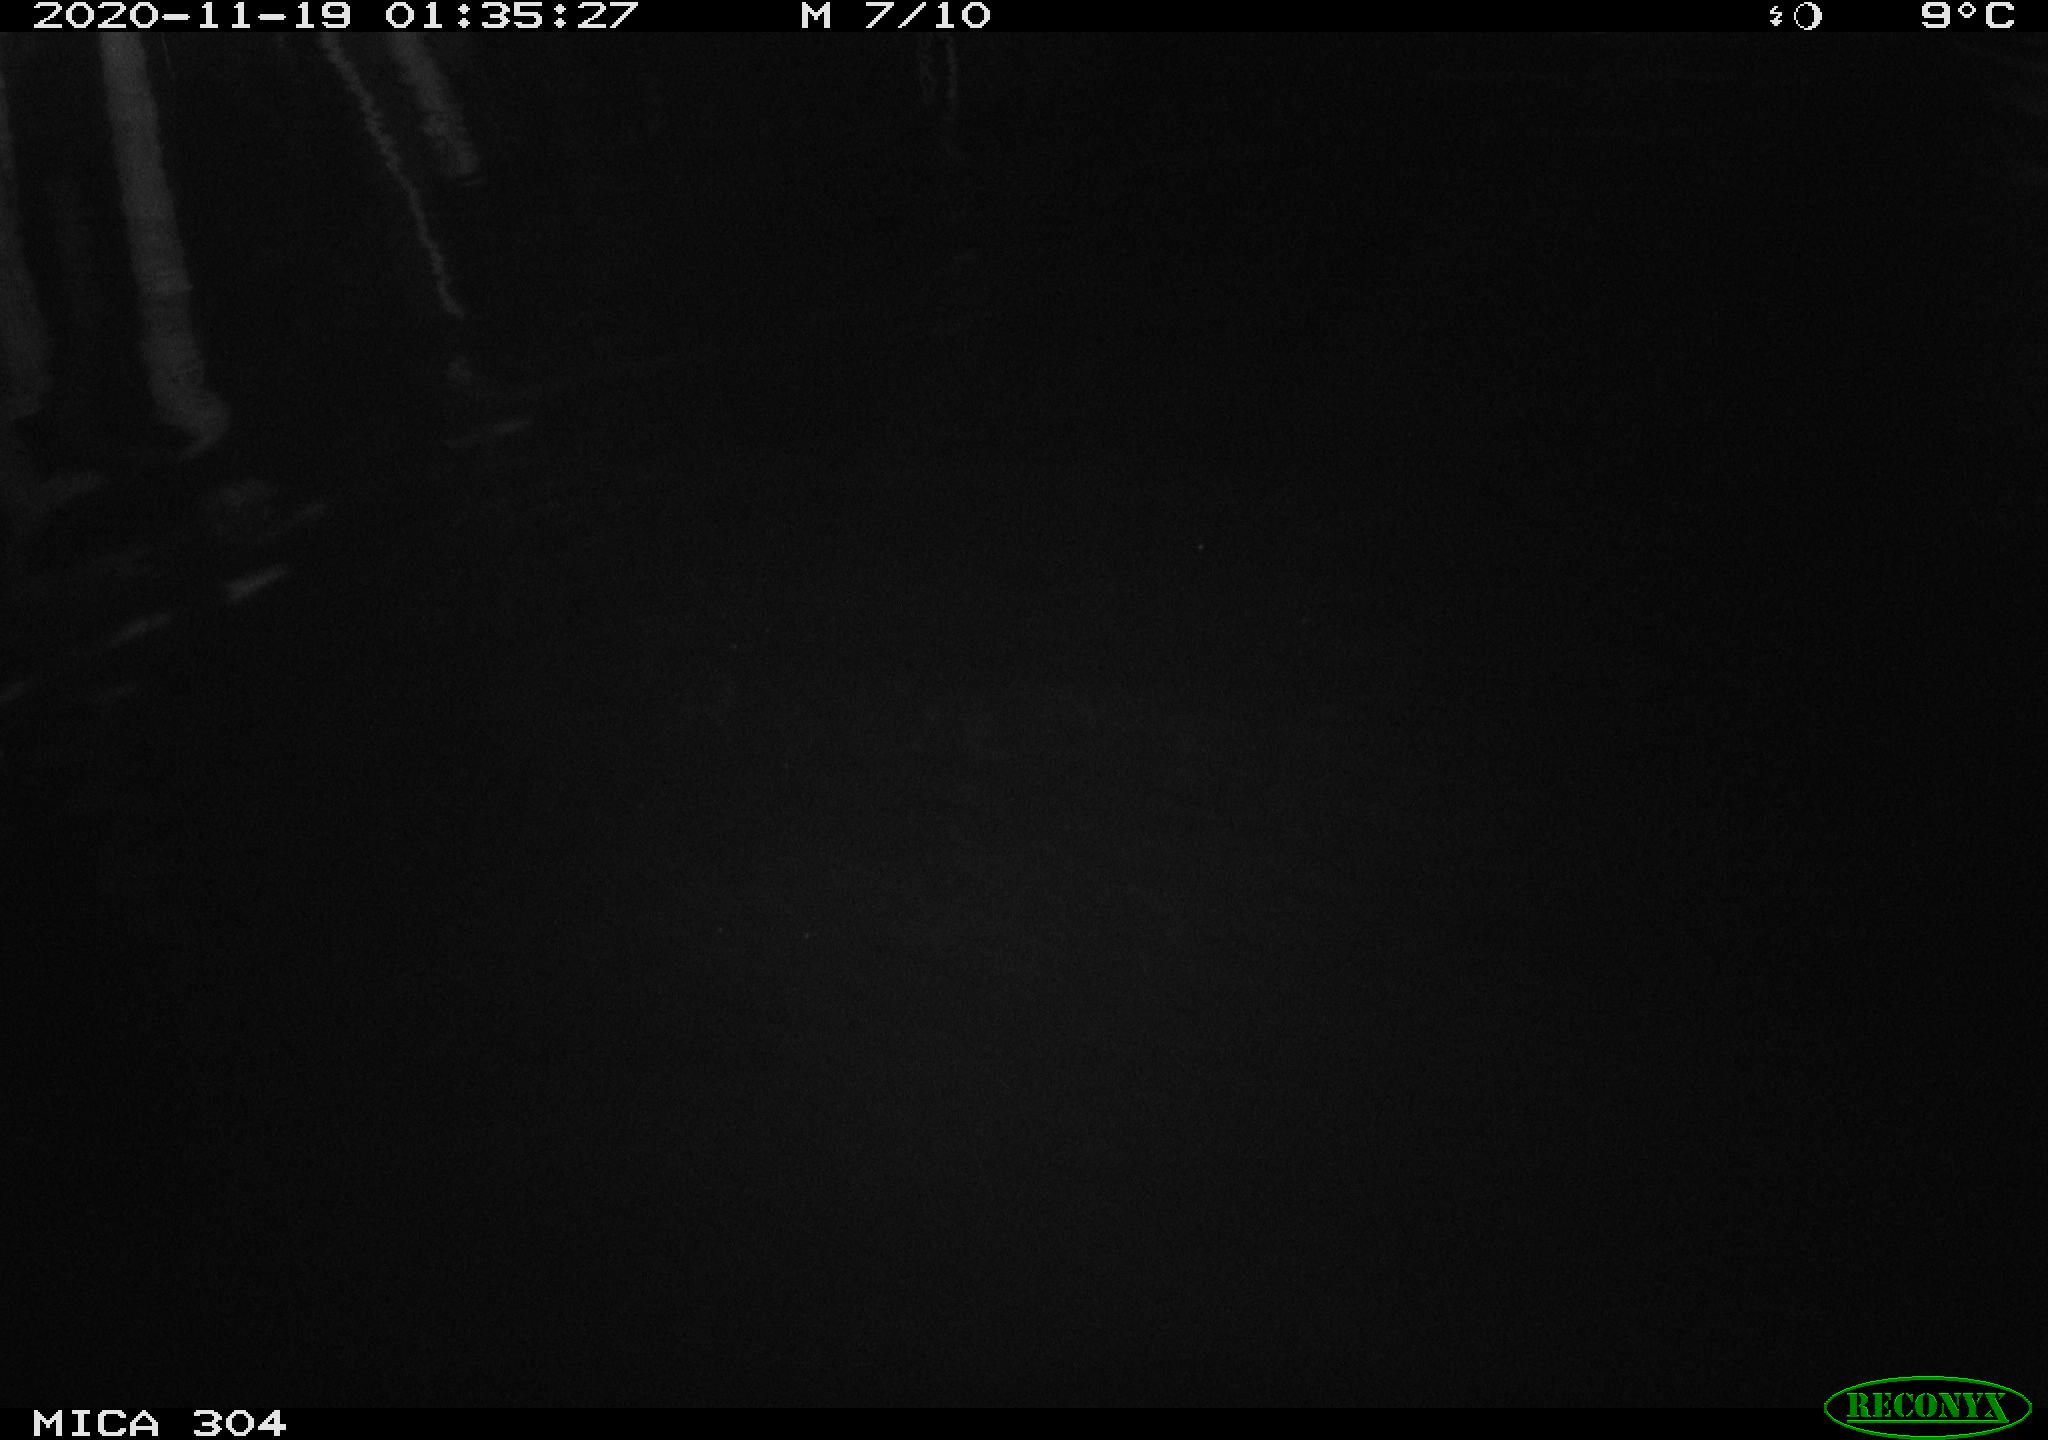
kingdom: Animalia
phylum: Chordata
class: Aves
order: Anseriformes
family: Anatidae
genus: Anas
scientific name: Anas platyrhynchos
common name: Mallard
